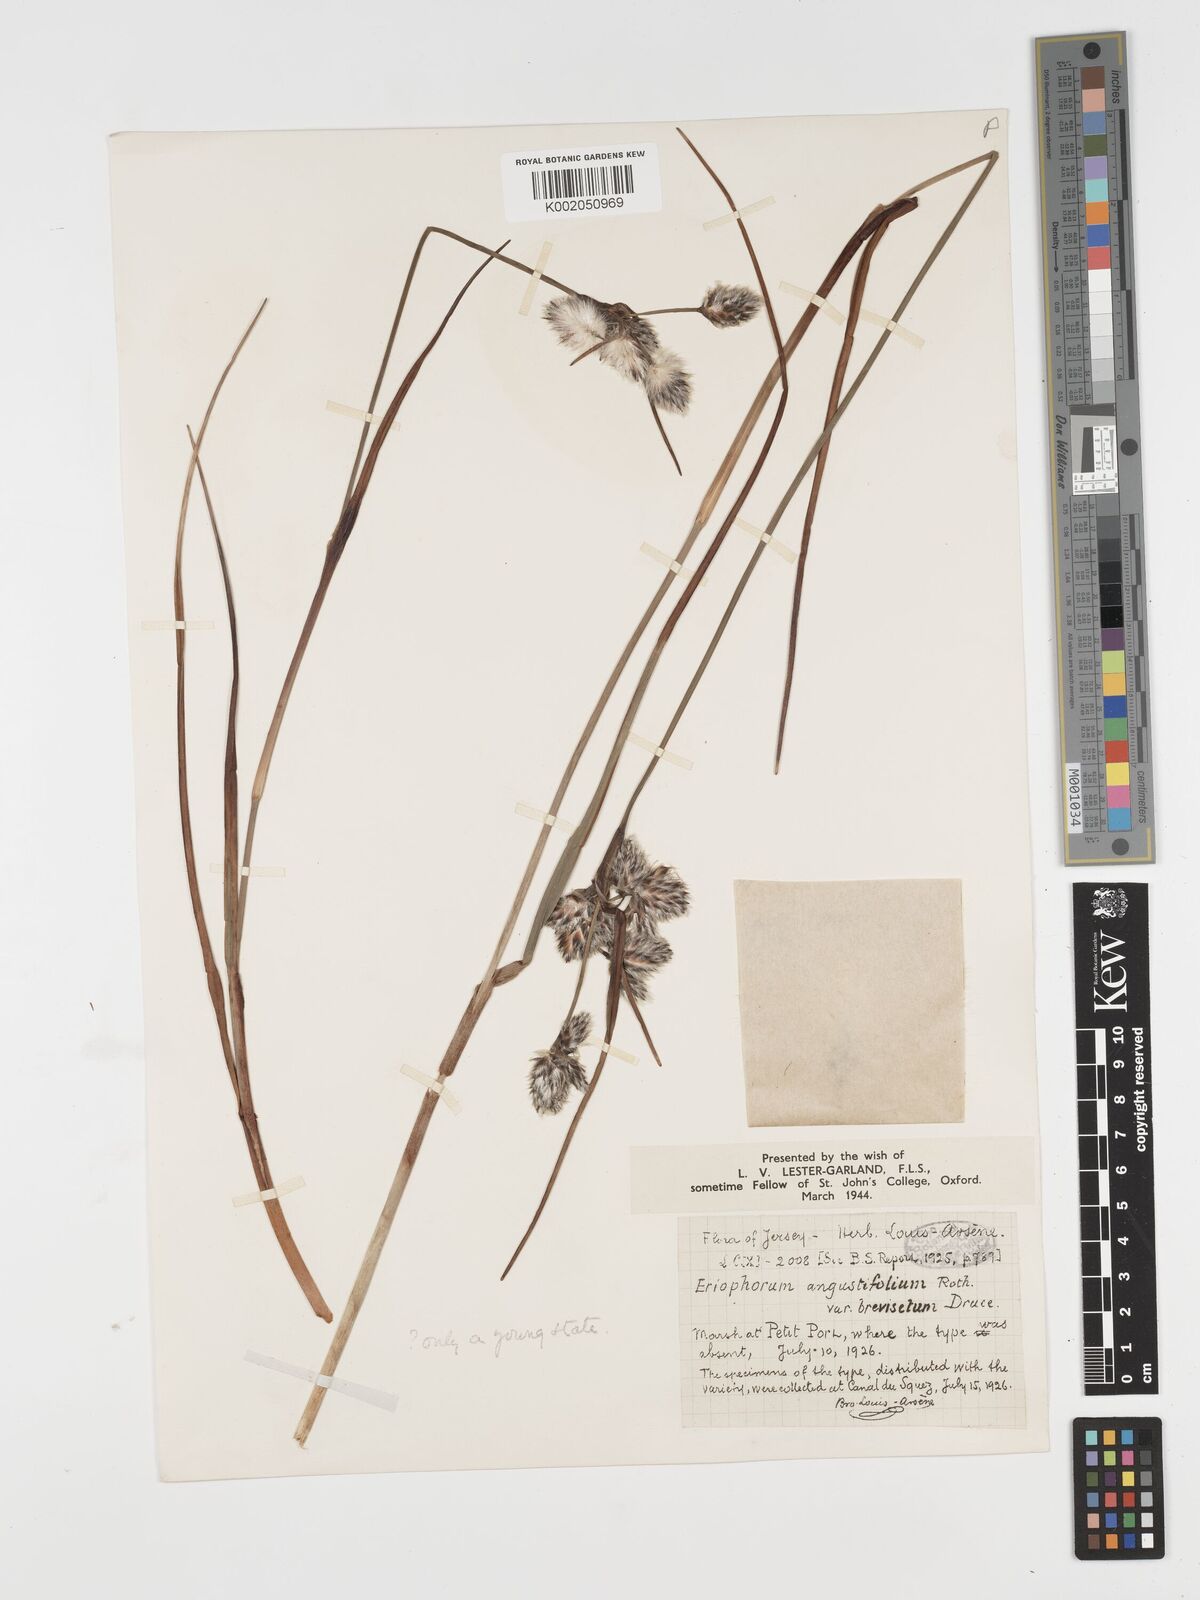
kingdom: Plantae
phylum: Tracheophyta
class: Liliopsida
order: Poales
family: Cyperaceae
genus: Eriophorum
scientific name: Eriophorum angustifolium
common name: Common cottongrass
